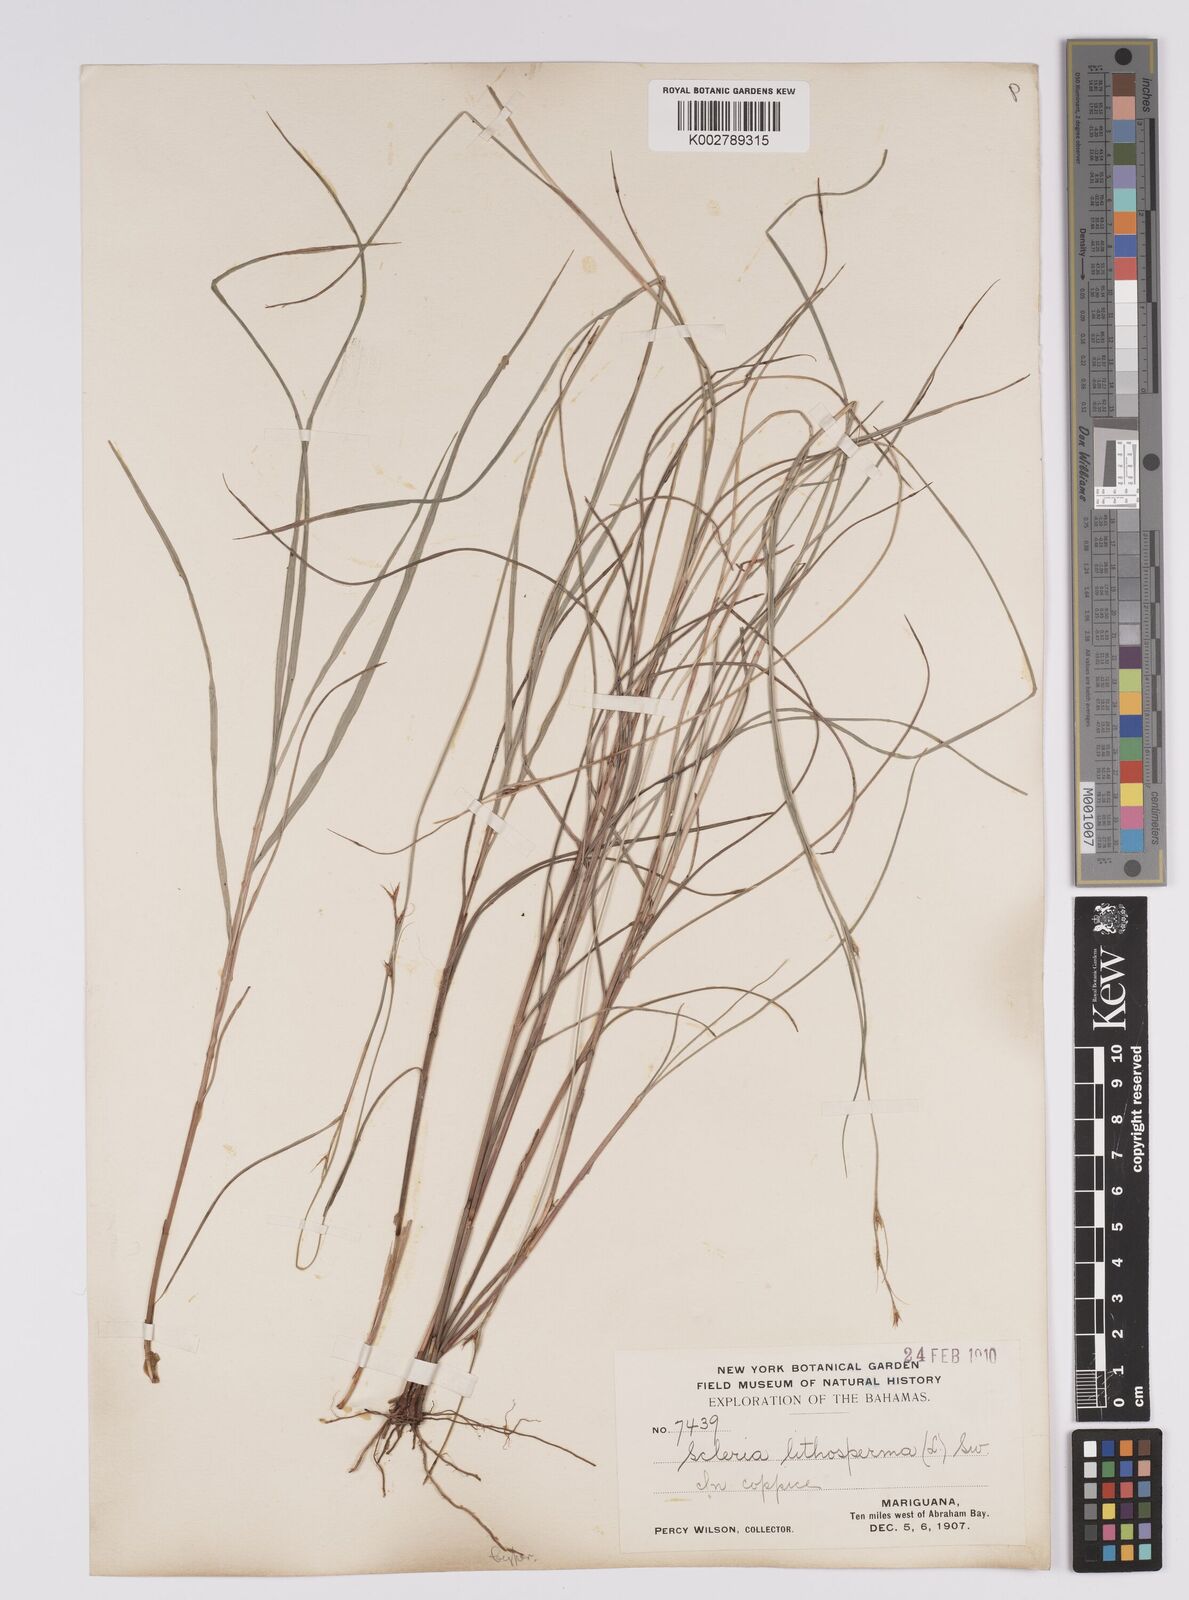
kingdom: Plantae
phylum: Tracheophyta
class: Liliopsida
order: Poales
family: Cyperaceae
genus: Scleria
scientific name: Scleria lithosperma
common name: Florida keys nut-rush
